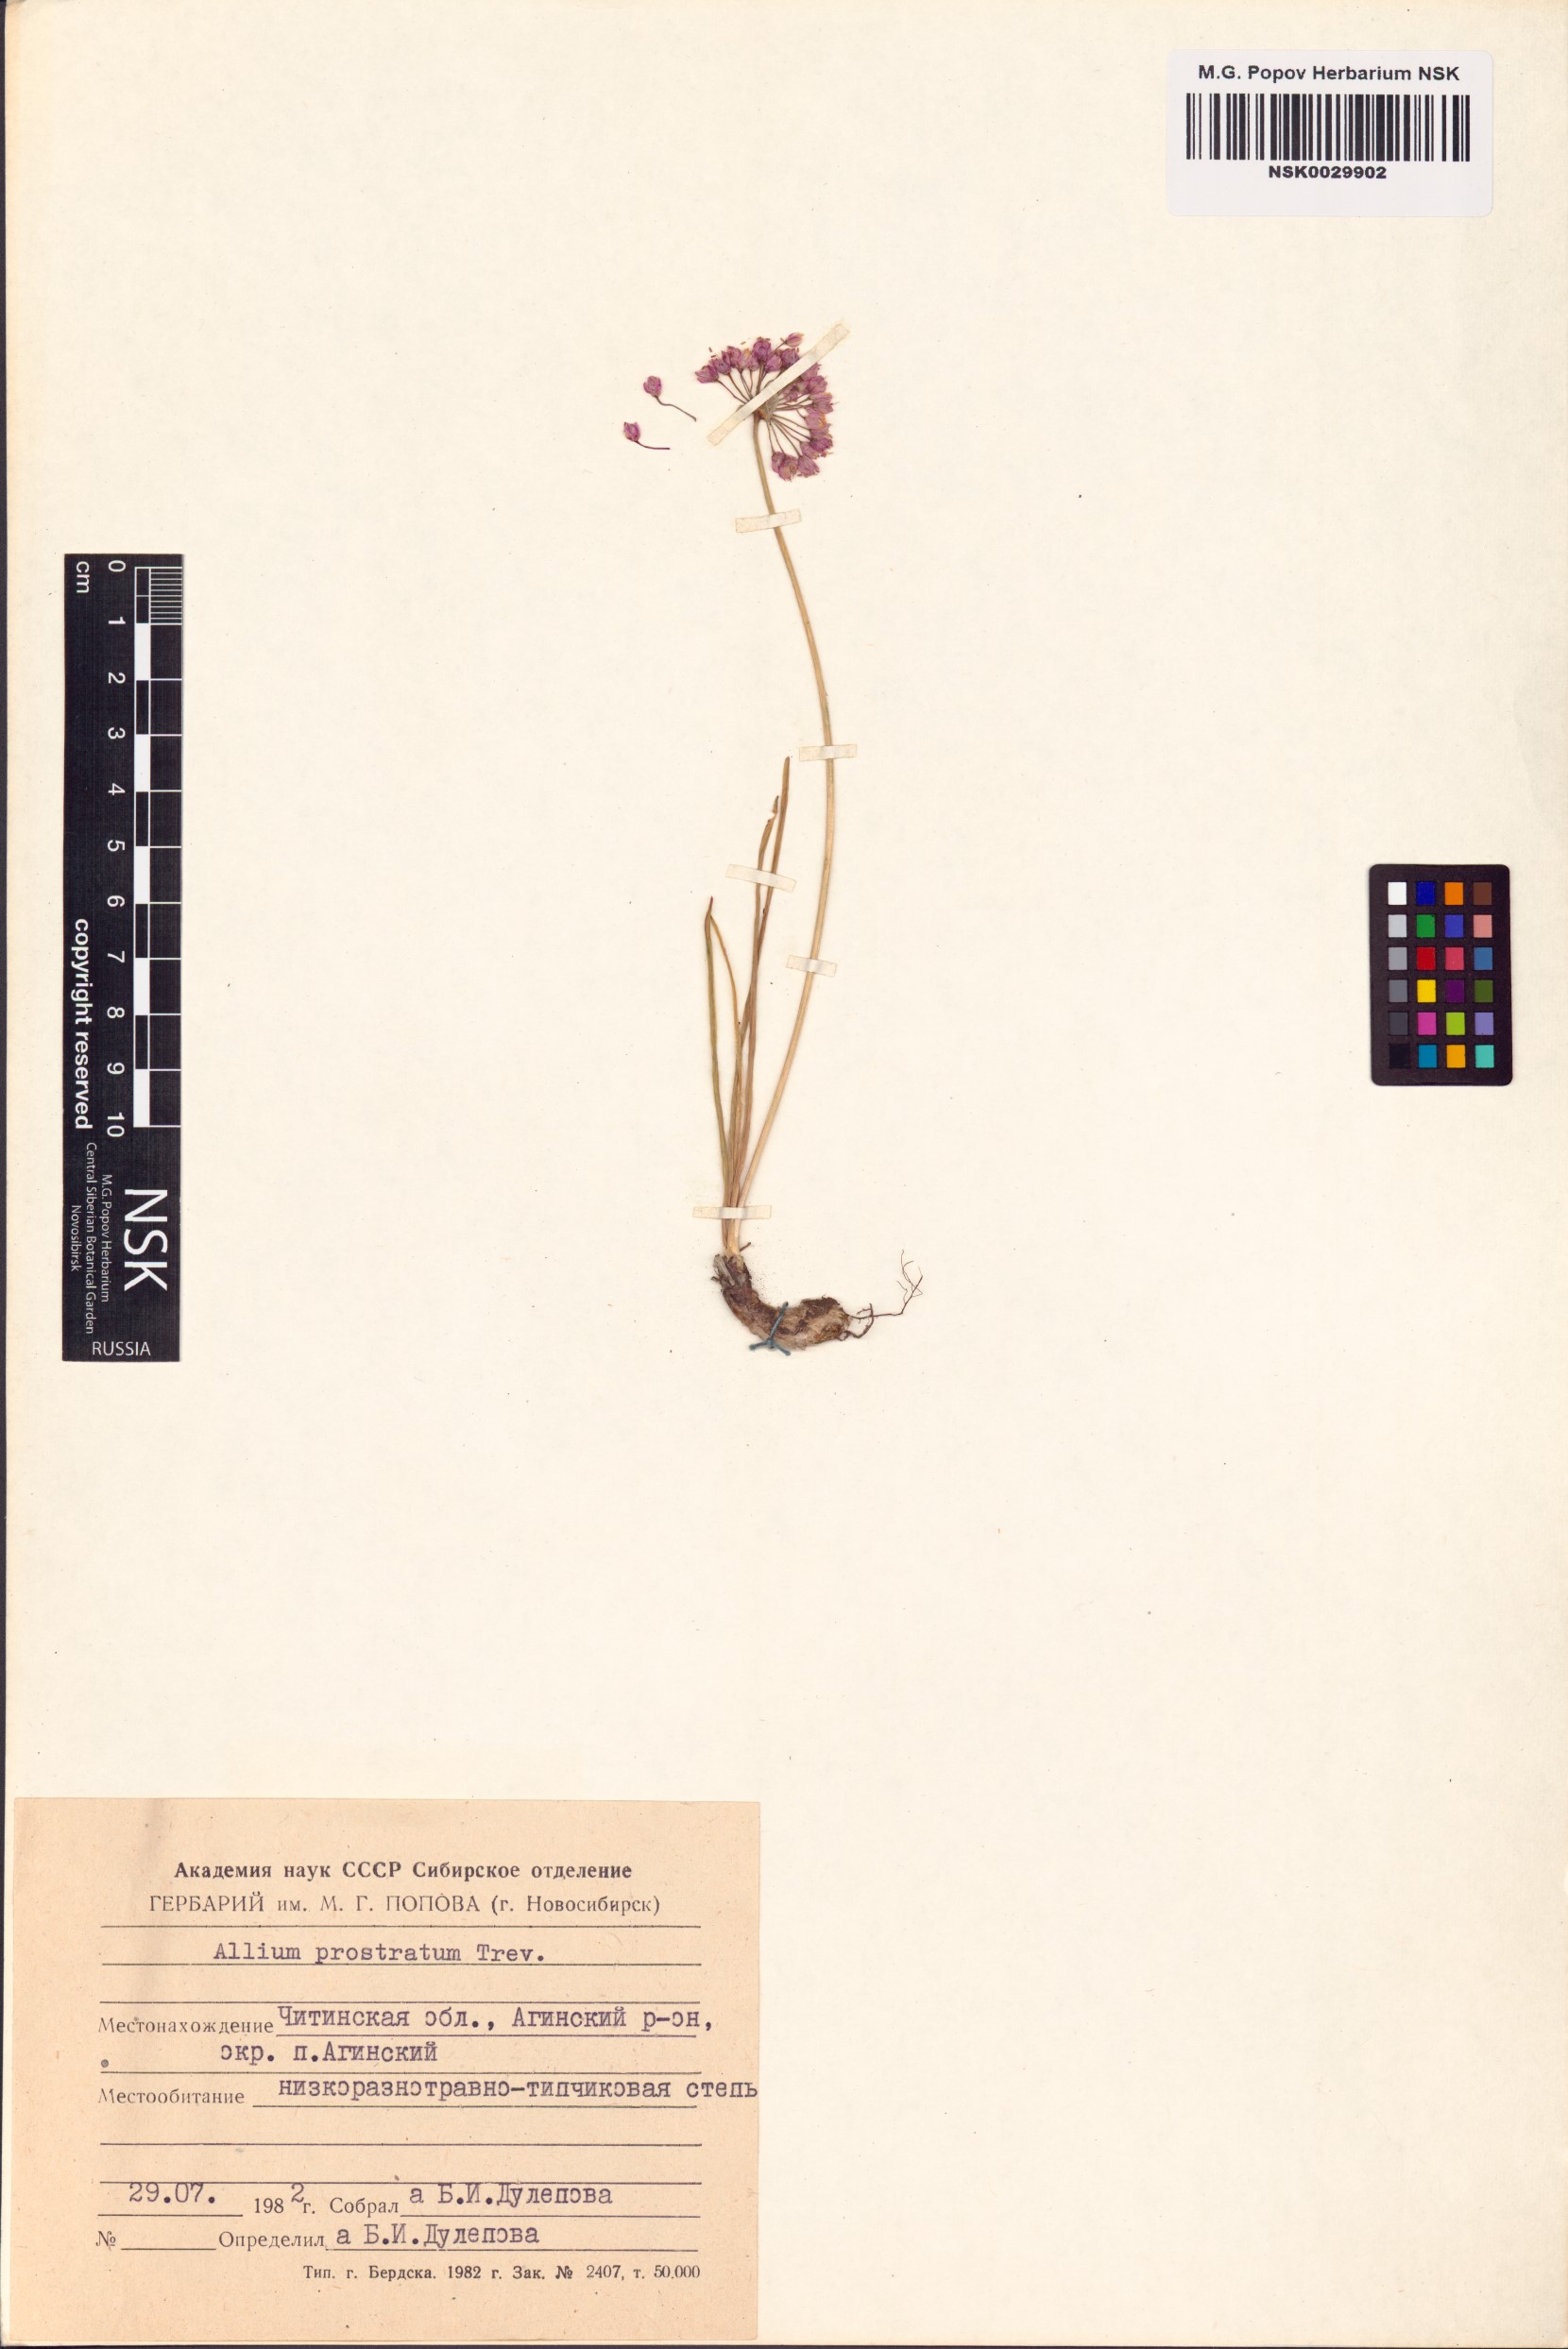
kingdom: Plantae
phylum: Tracheophyta
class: Liliopsida
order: Asparagales
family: Amaryllidaceae
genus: Allium
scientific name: Allium prostratum
